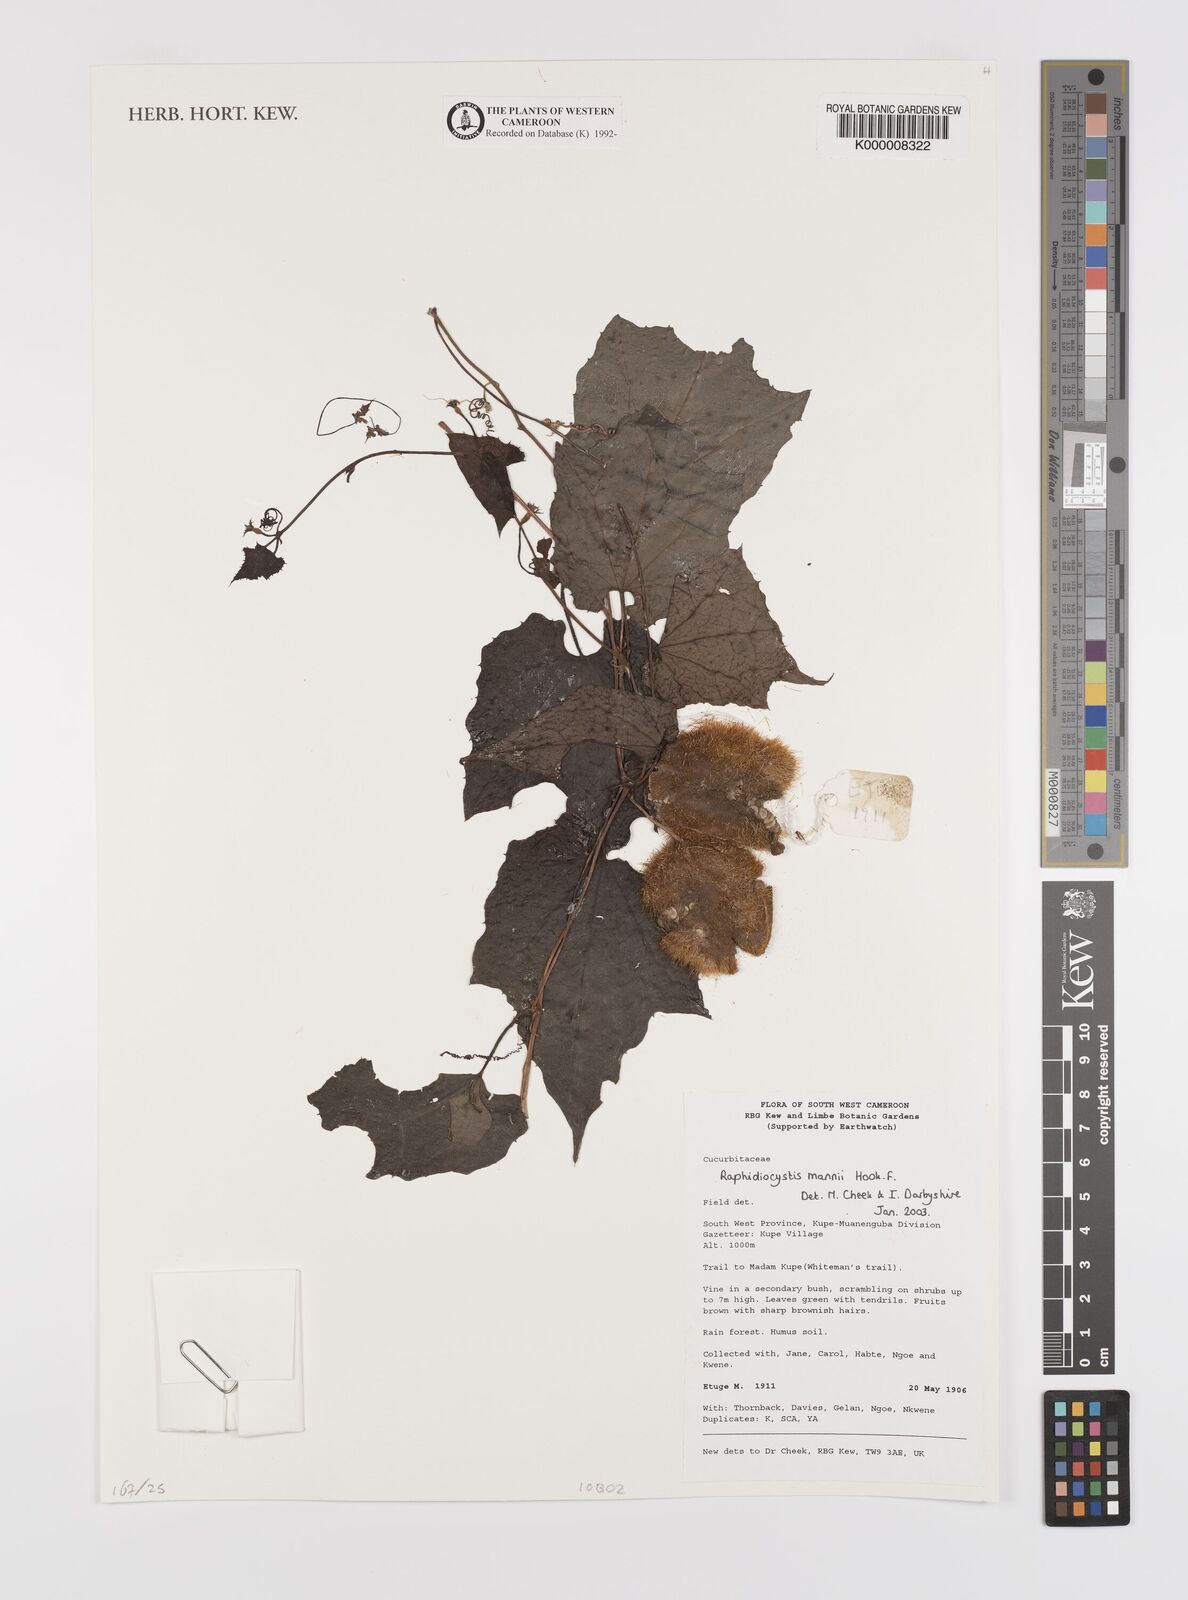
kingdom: Plantae
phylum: Tracheophyta
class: Magnoliopsida
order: Cucurbitales
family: Cucurbitaceae
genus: Raphidiocystis
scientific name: Raphidiocystis mannii
